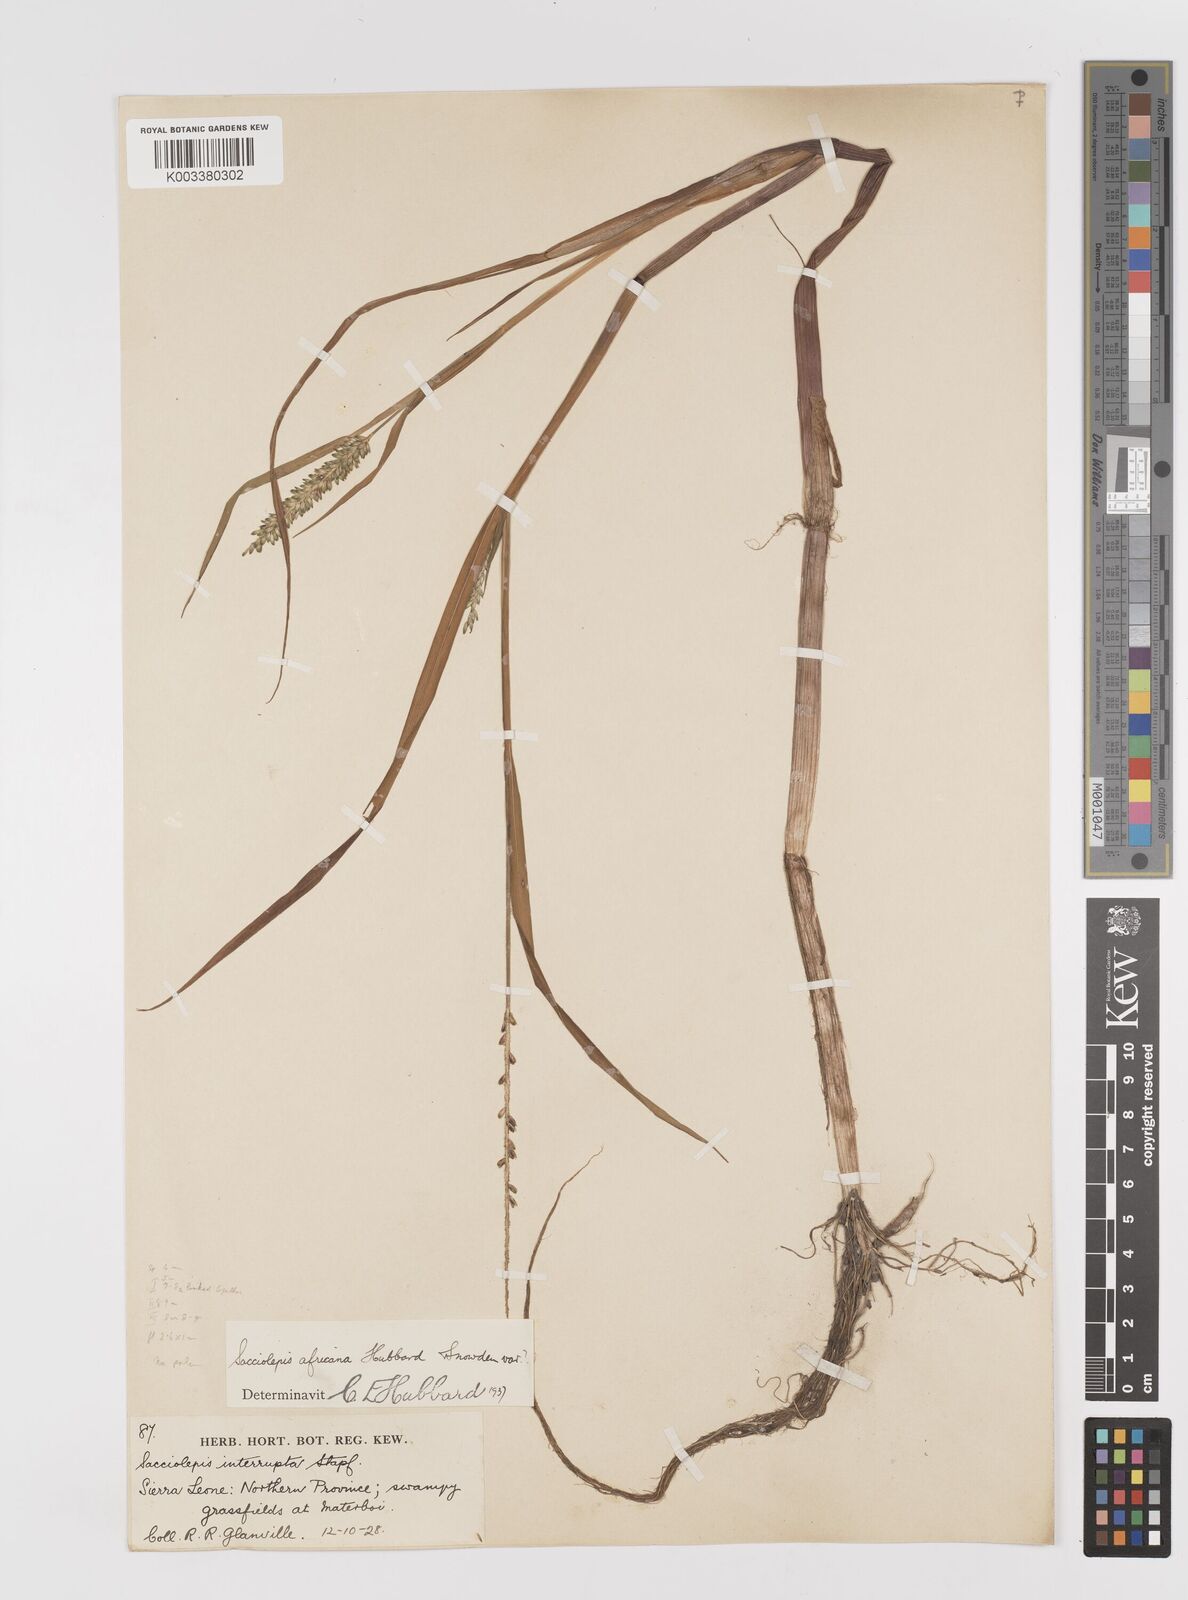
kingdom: Plantae
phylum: Tracheophyta
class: Liliopsida
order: Poales
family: Poaceae
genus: Sacciolepis
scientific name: Sacciolepis africana
